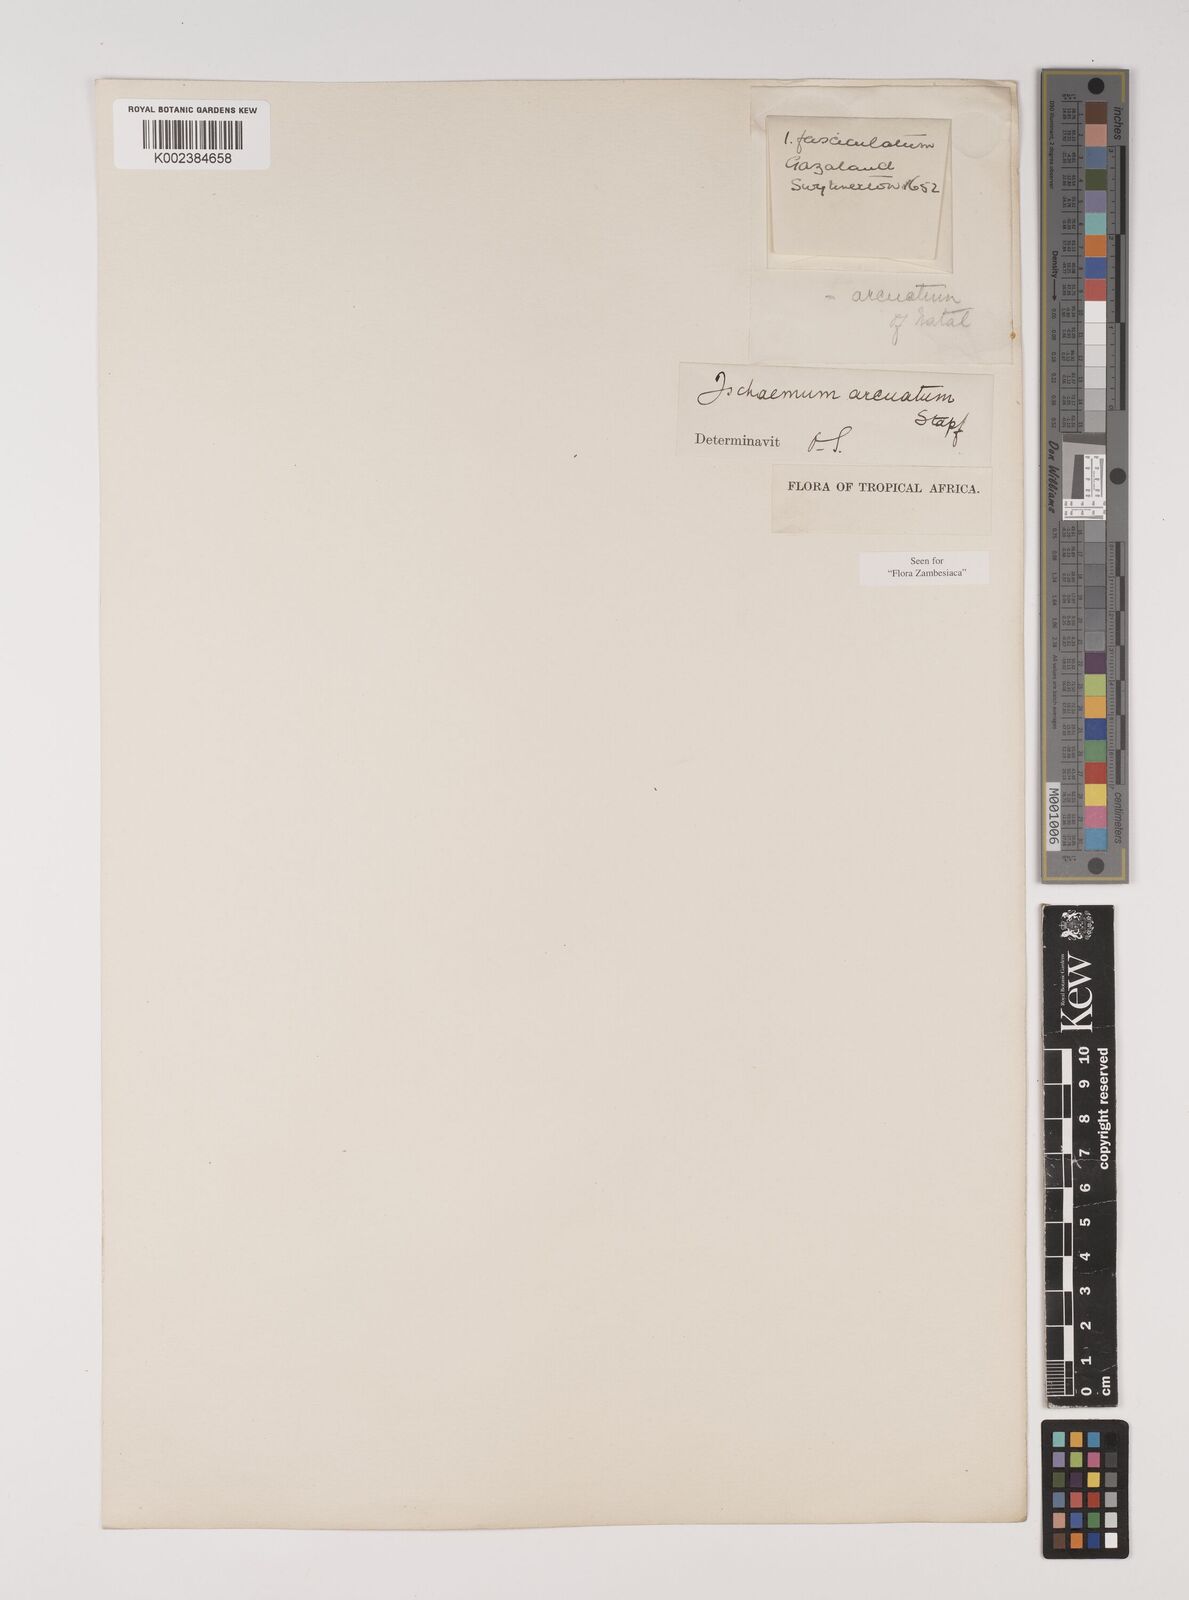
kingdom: Plantae
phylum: Tracheophyta
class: Liliopsida
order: Poales
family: Poaceae
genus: Ischaemum
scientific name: Ischaemum
